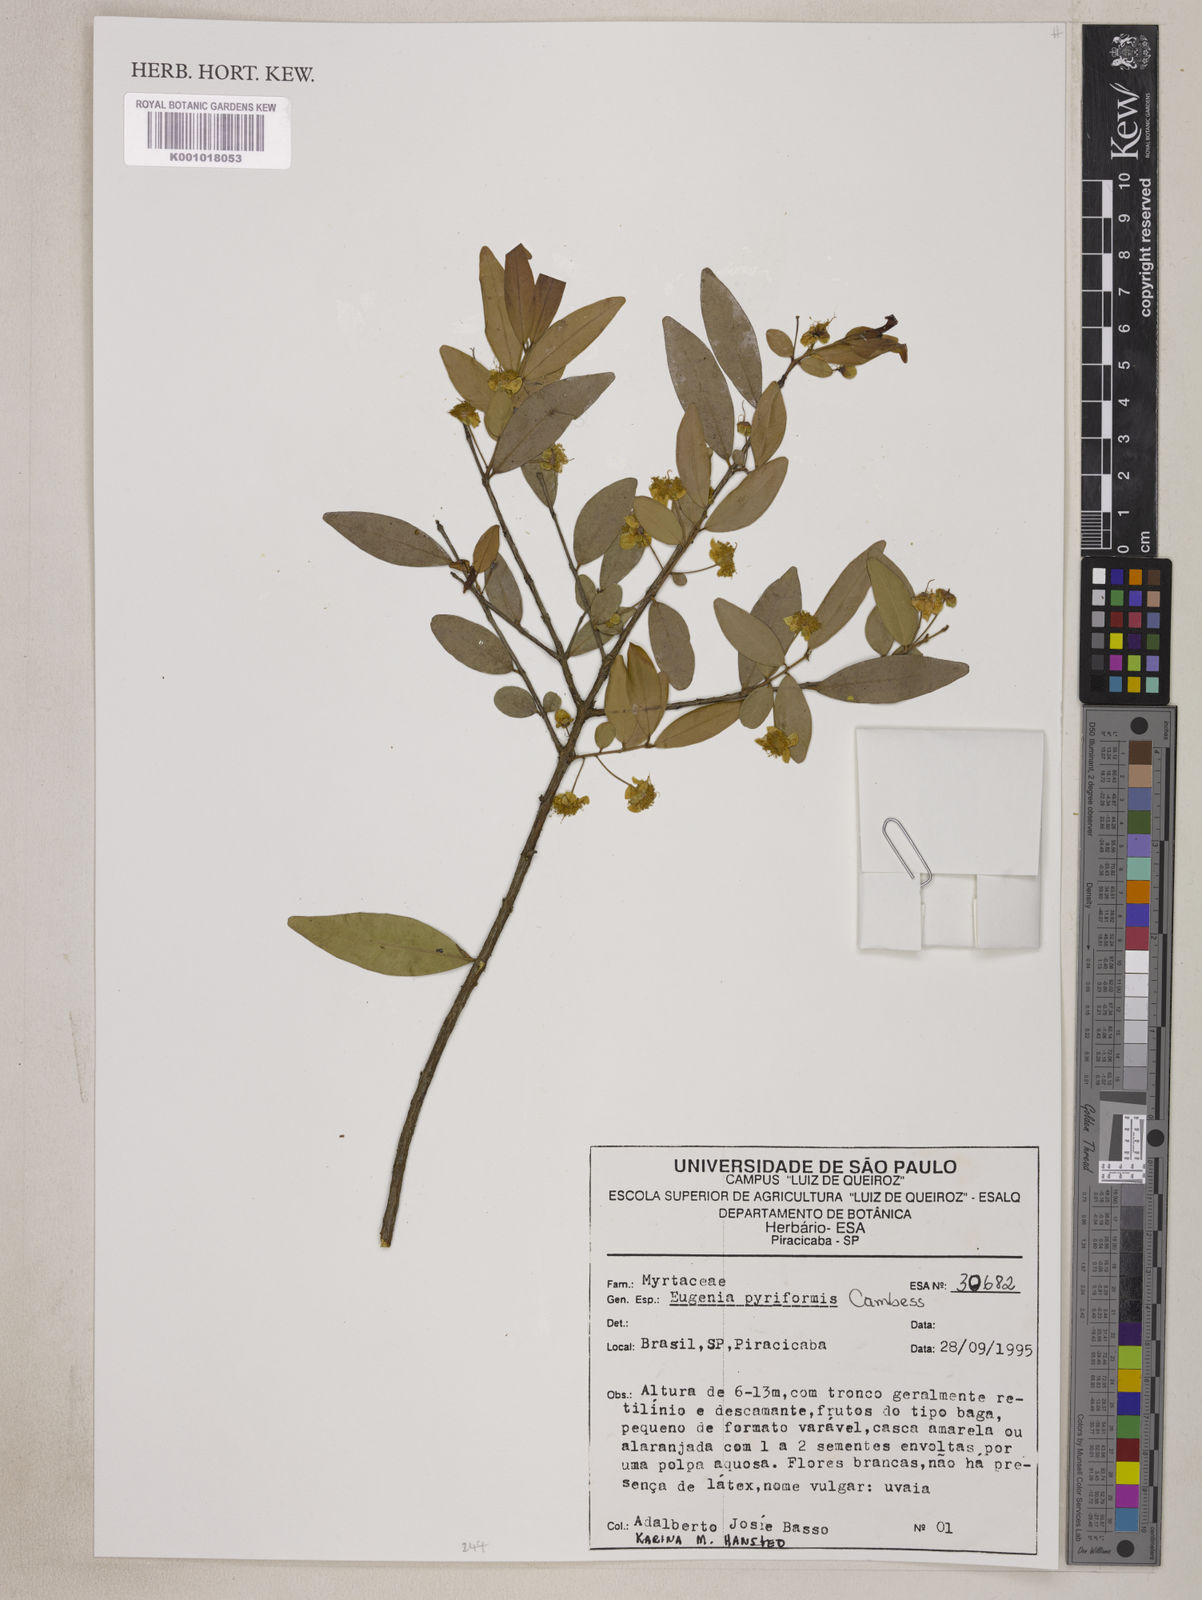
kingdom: Plantae
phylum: Tracheophyta
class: Magnoliopsida
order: Myrtales
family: Myrtaceae
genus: Eugenia
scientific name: Eugenia pyriformis
